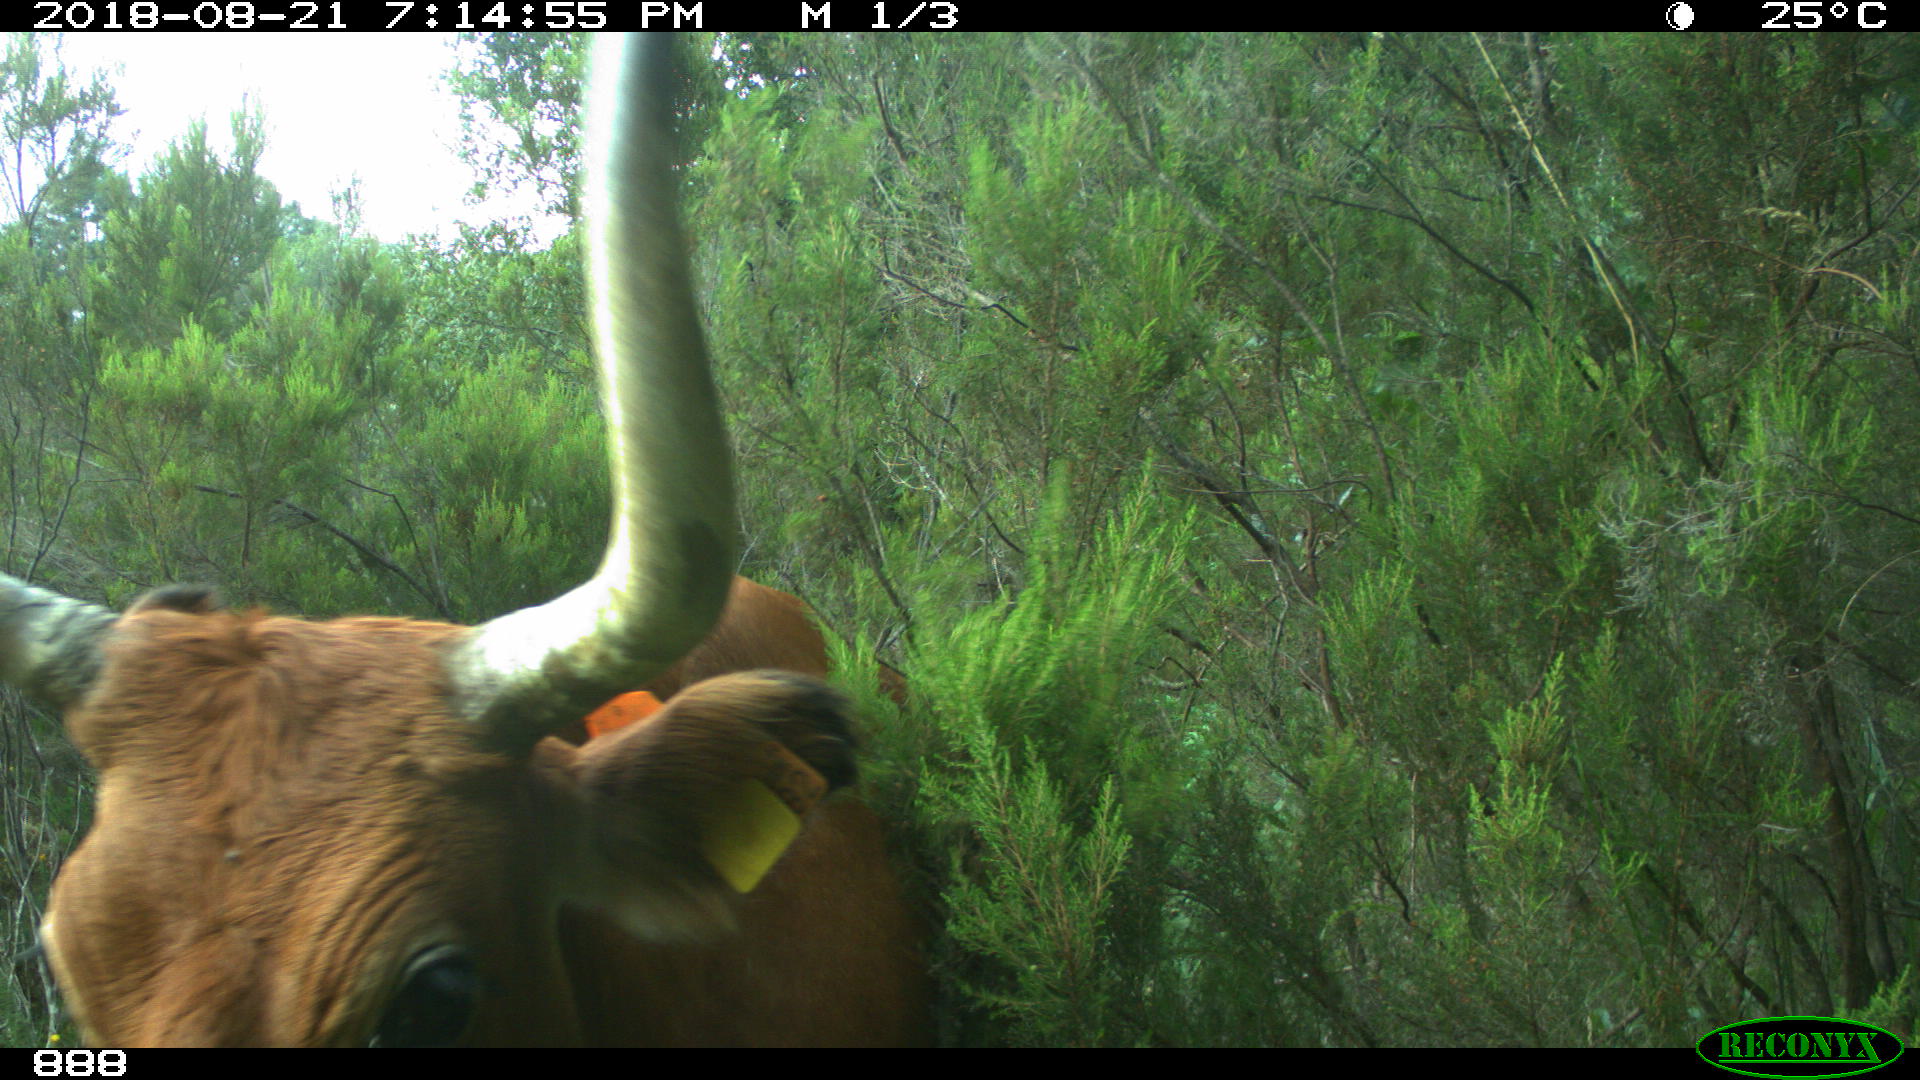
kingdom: Animalia
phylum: Chordata
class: Mammalia
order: Artiodactyla
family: Bovidae
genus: Bos
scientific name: Bos taurus
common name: Domesticated cattle
